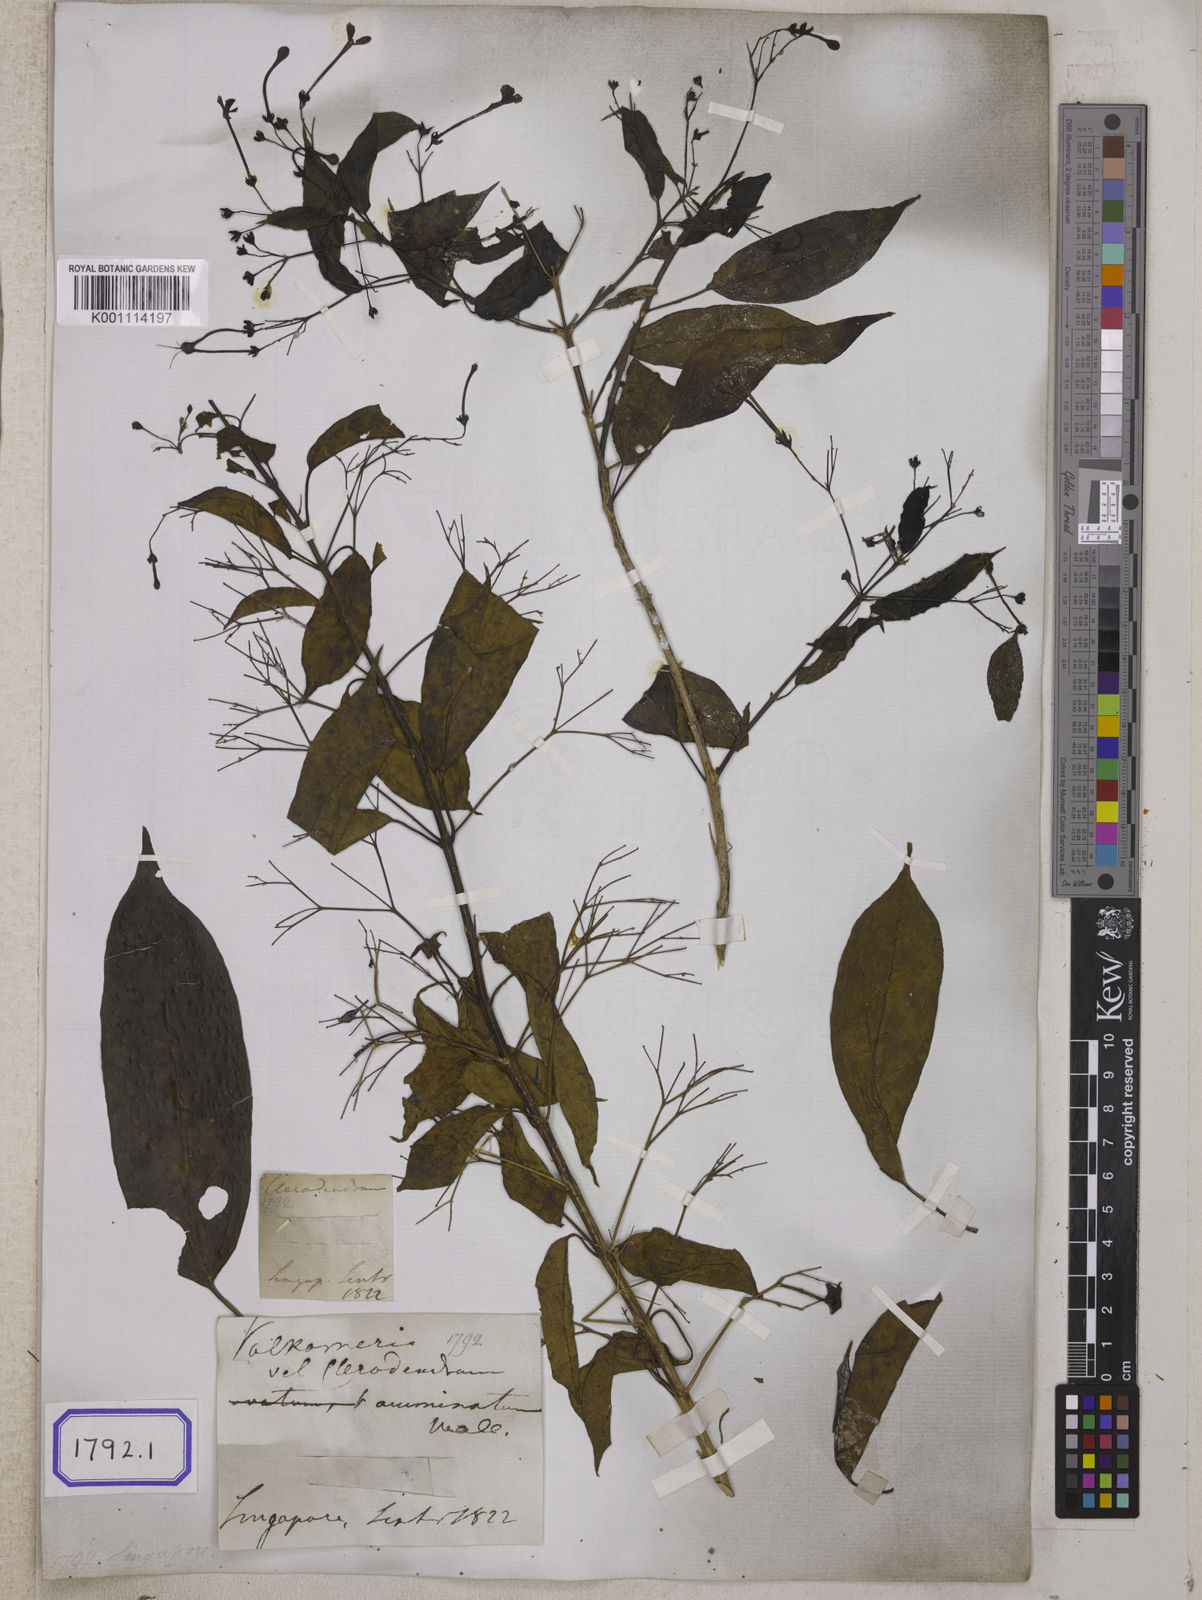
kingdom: Plantae
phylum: Tracheophyta
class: Magnoliopsida
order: Lamiales
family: Lamiaceae
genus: Clerodendrum
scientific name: Clerodendrum
